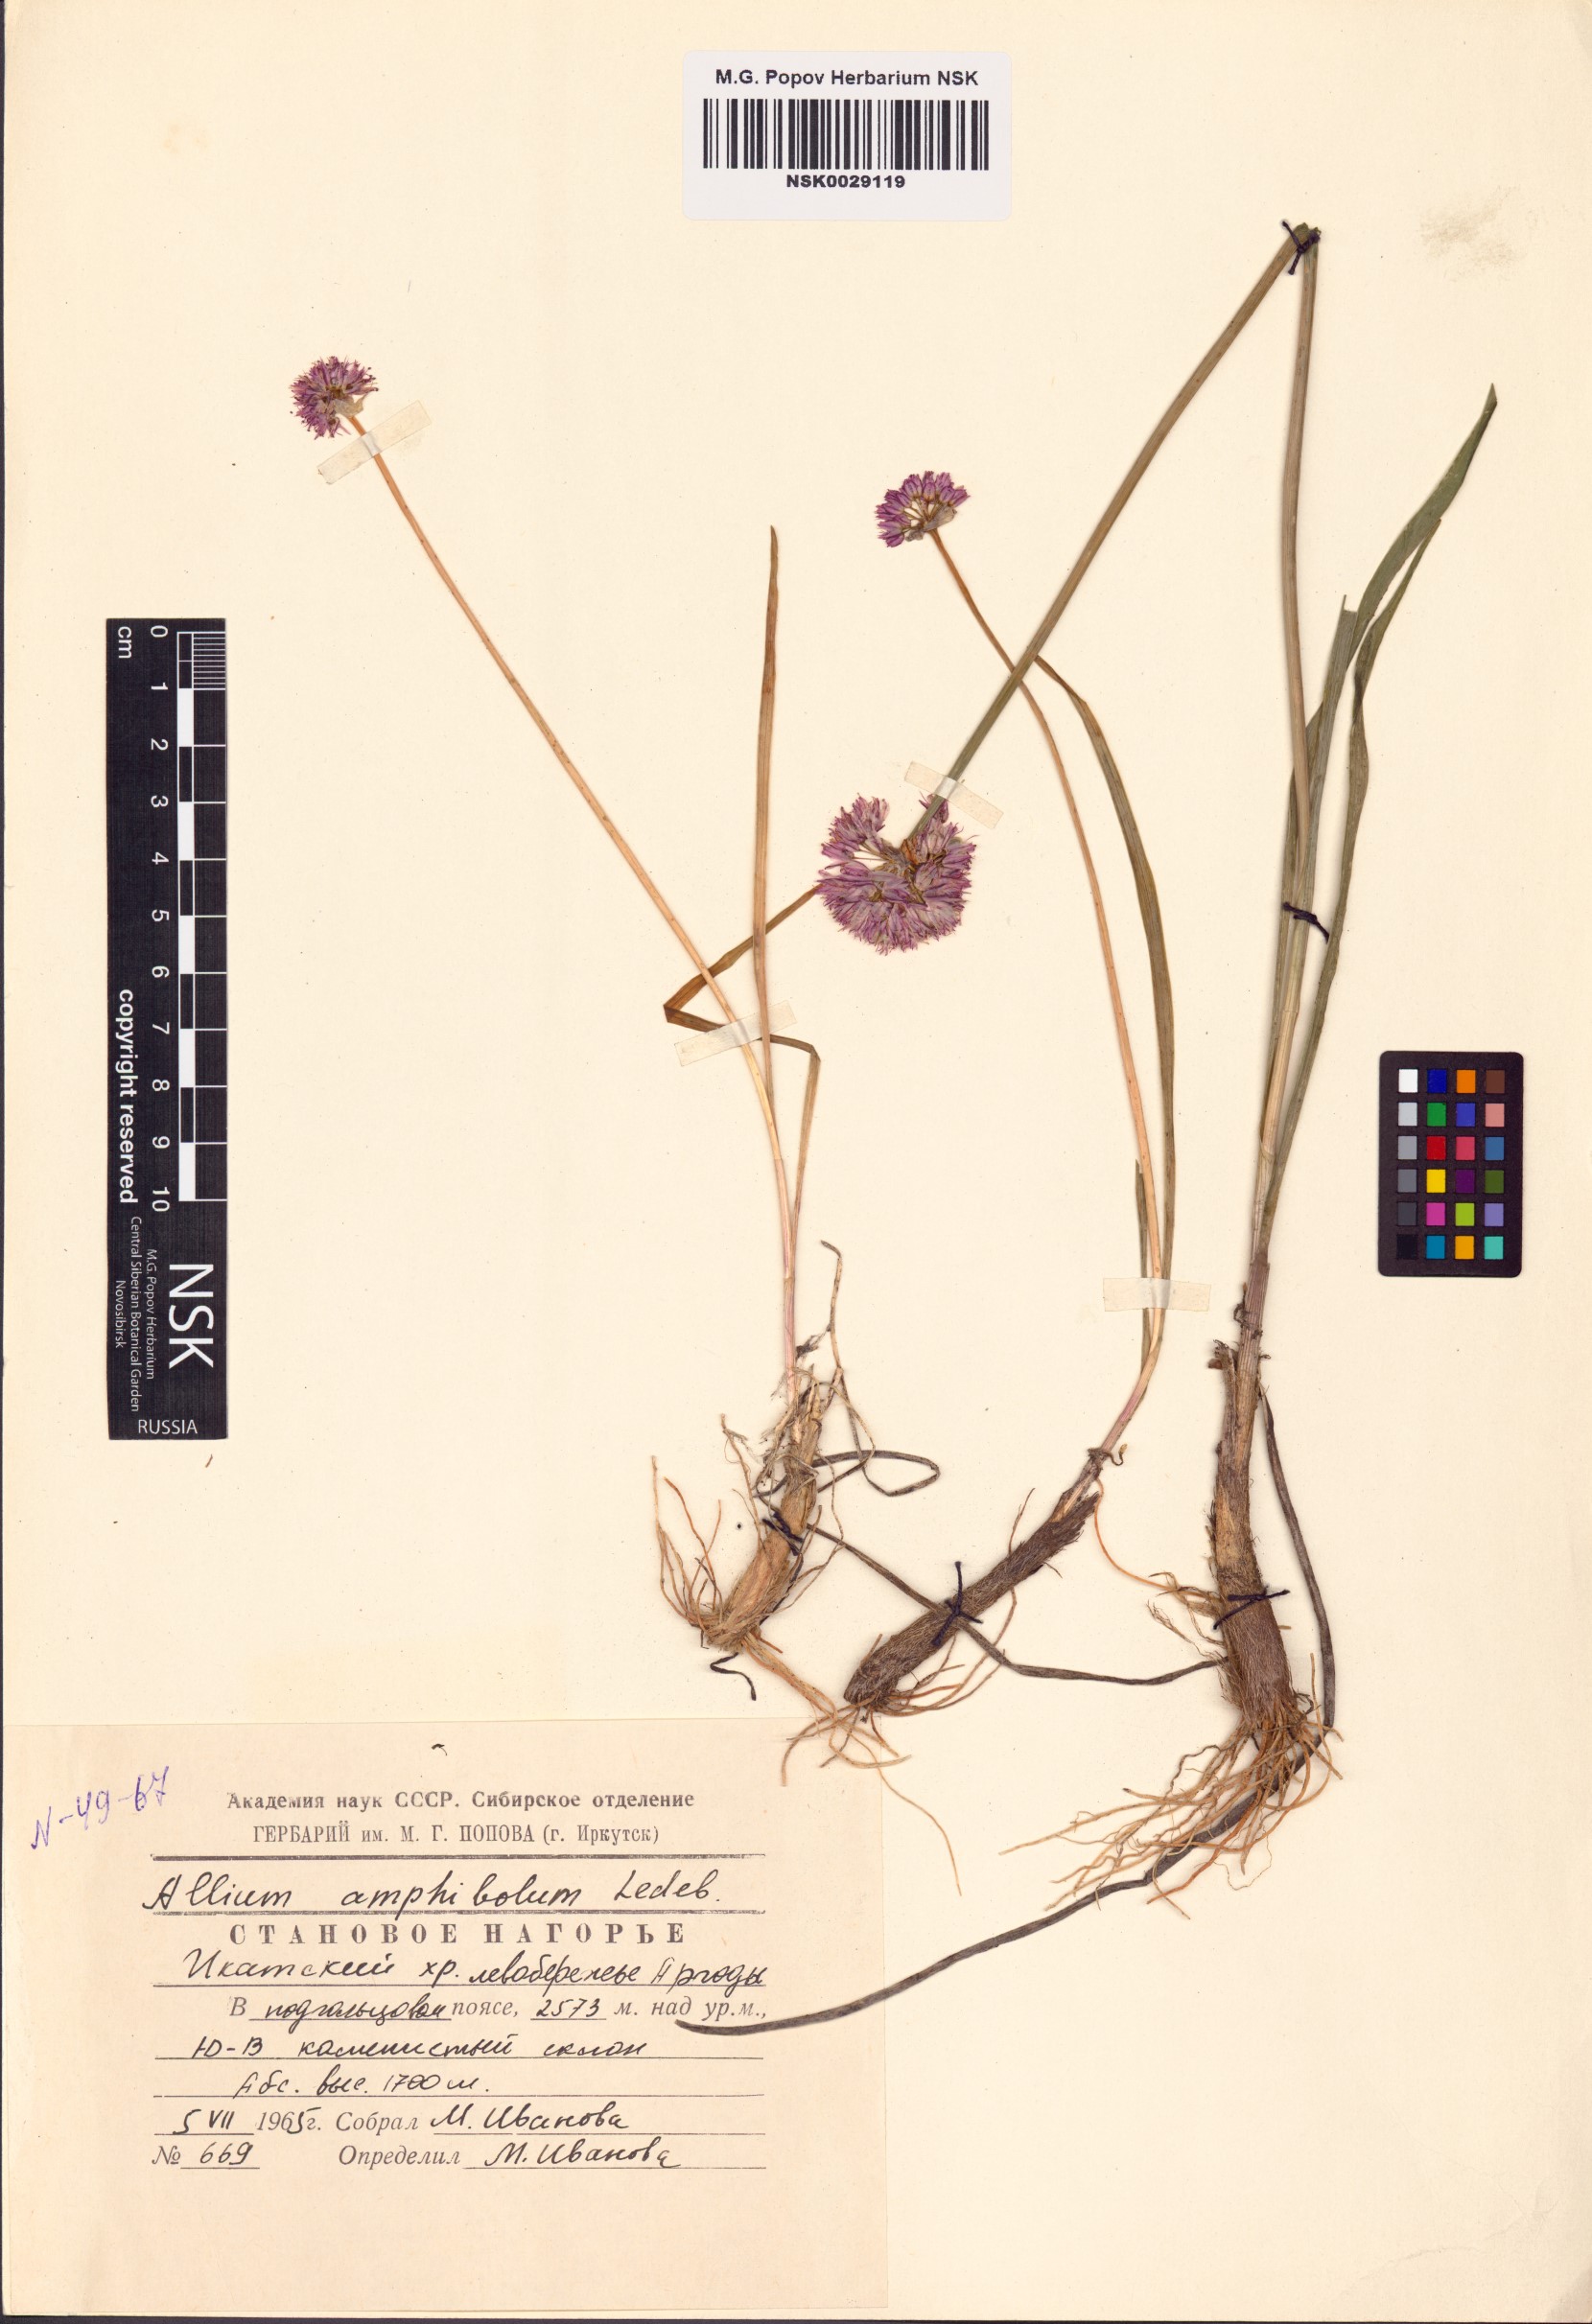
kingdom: Plantae
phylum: Tracheophyta
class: Liliopsida
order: Asparagales
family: Amaryllidaceae
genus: Allium
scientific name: Allium amphibolum
